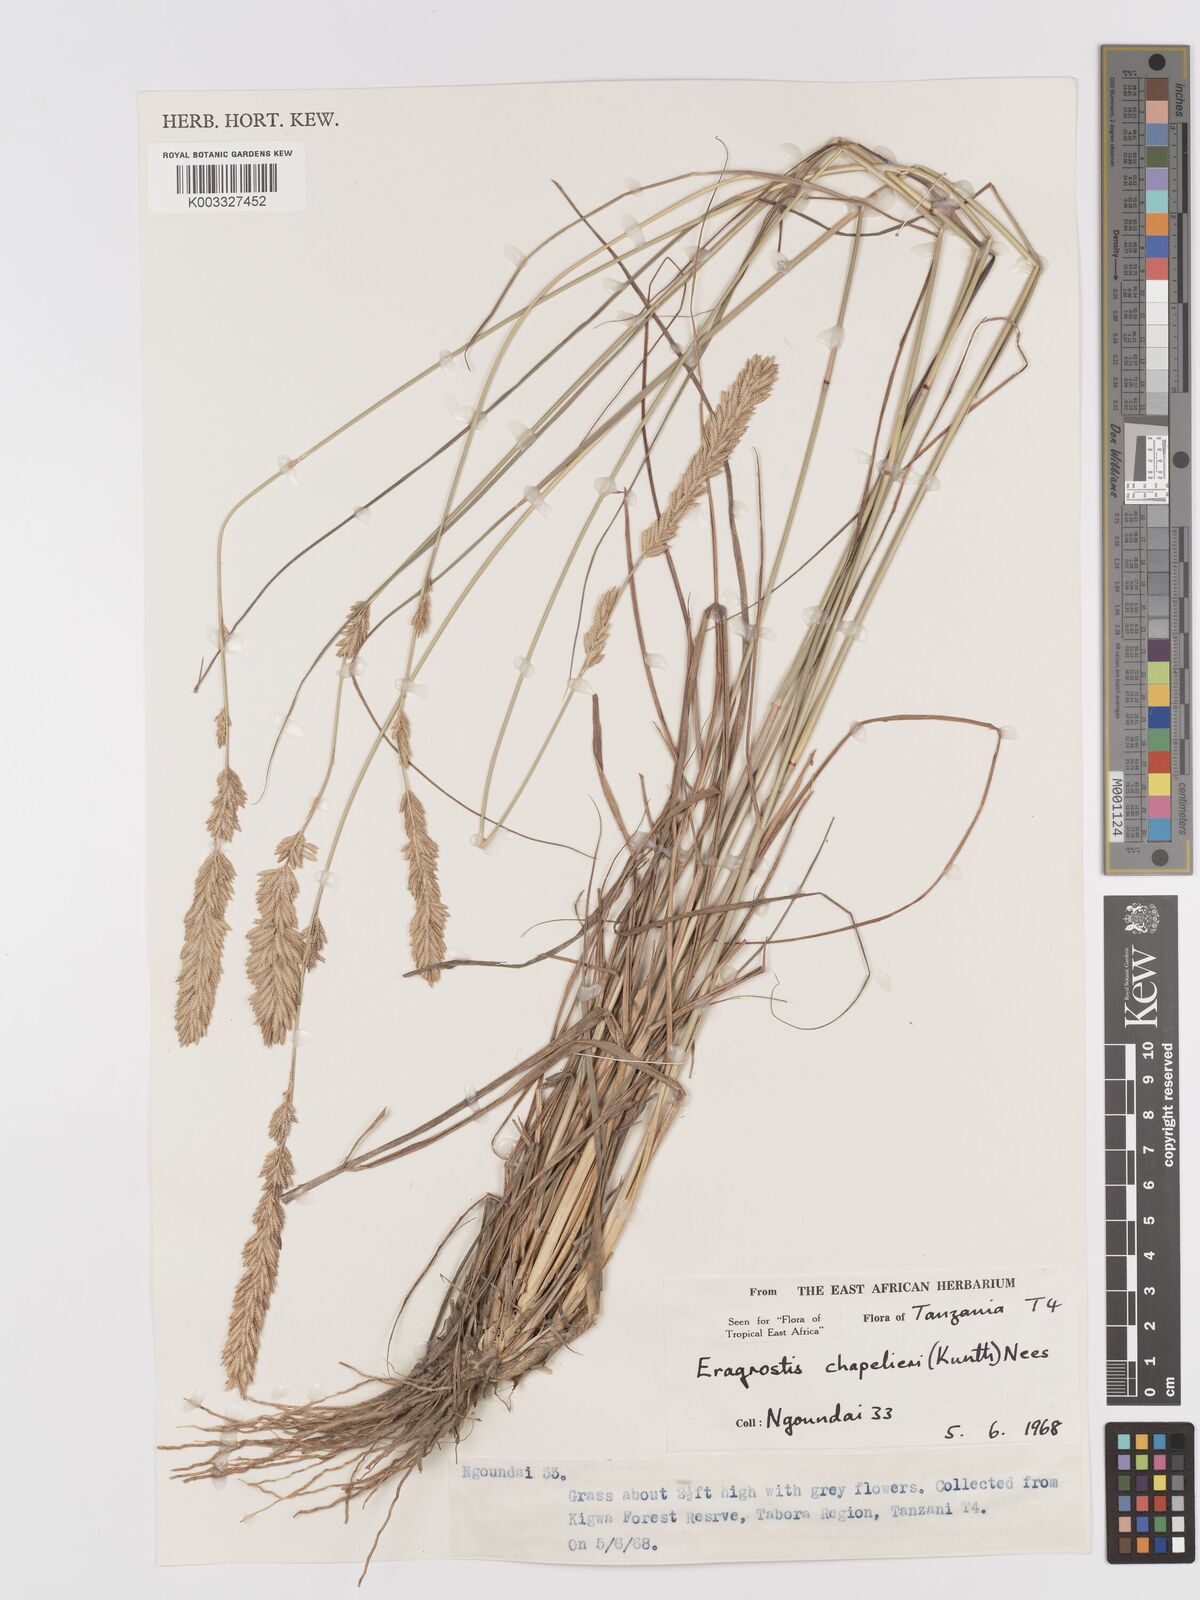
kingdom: Plantae
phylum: Tracheophyta
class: Liliopsida
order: Poales
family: Poaceae
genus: Eragrostis
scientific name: Eragrostis chapelieri
